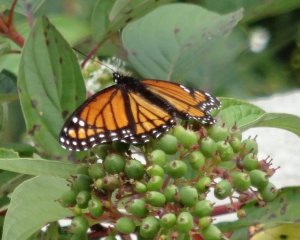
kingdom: Animalia
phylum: Arthropoda
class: Insecta
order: Lepidoptera
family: Nymphalidae
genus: Limenitis
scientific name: Limenitis archippus
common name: Viceroy
